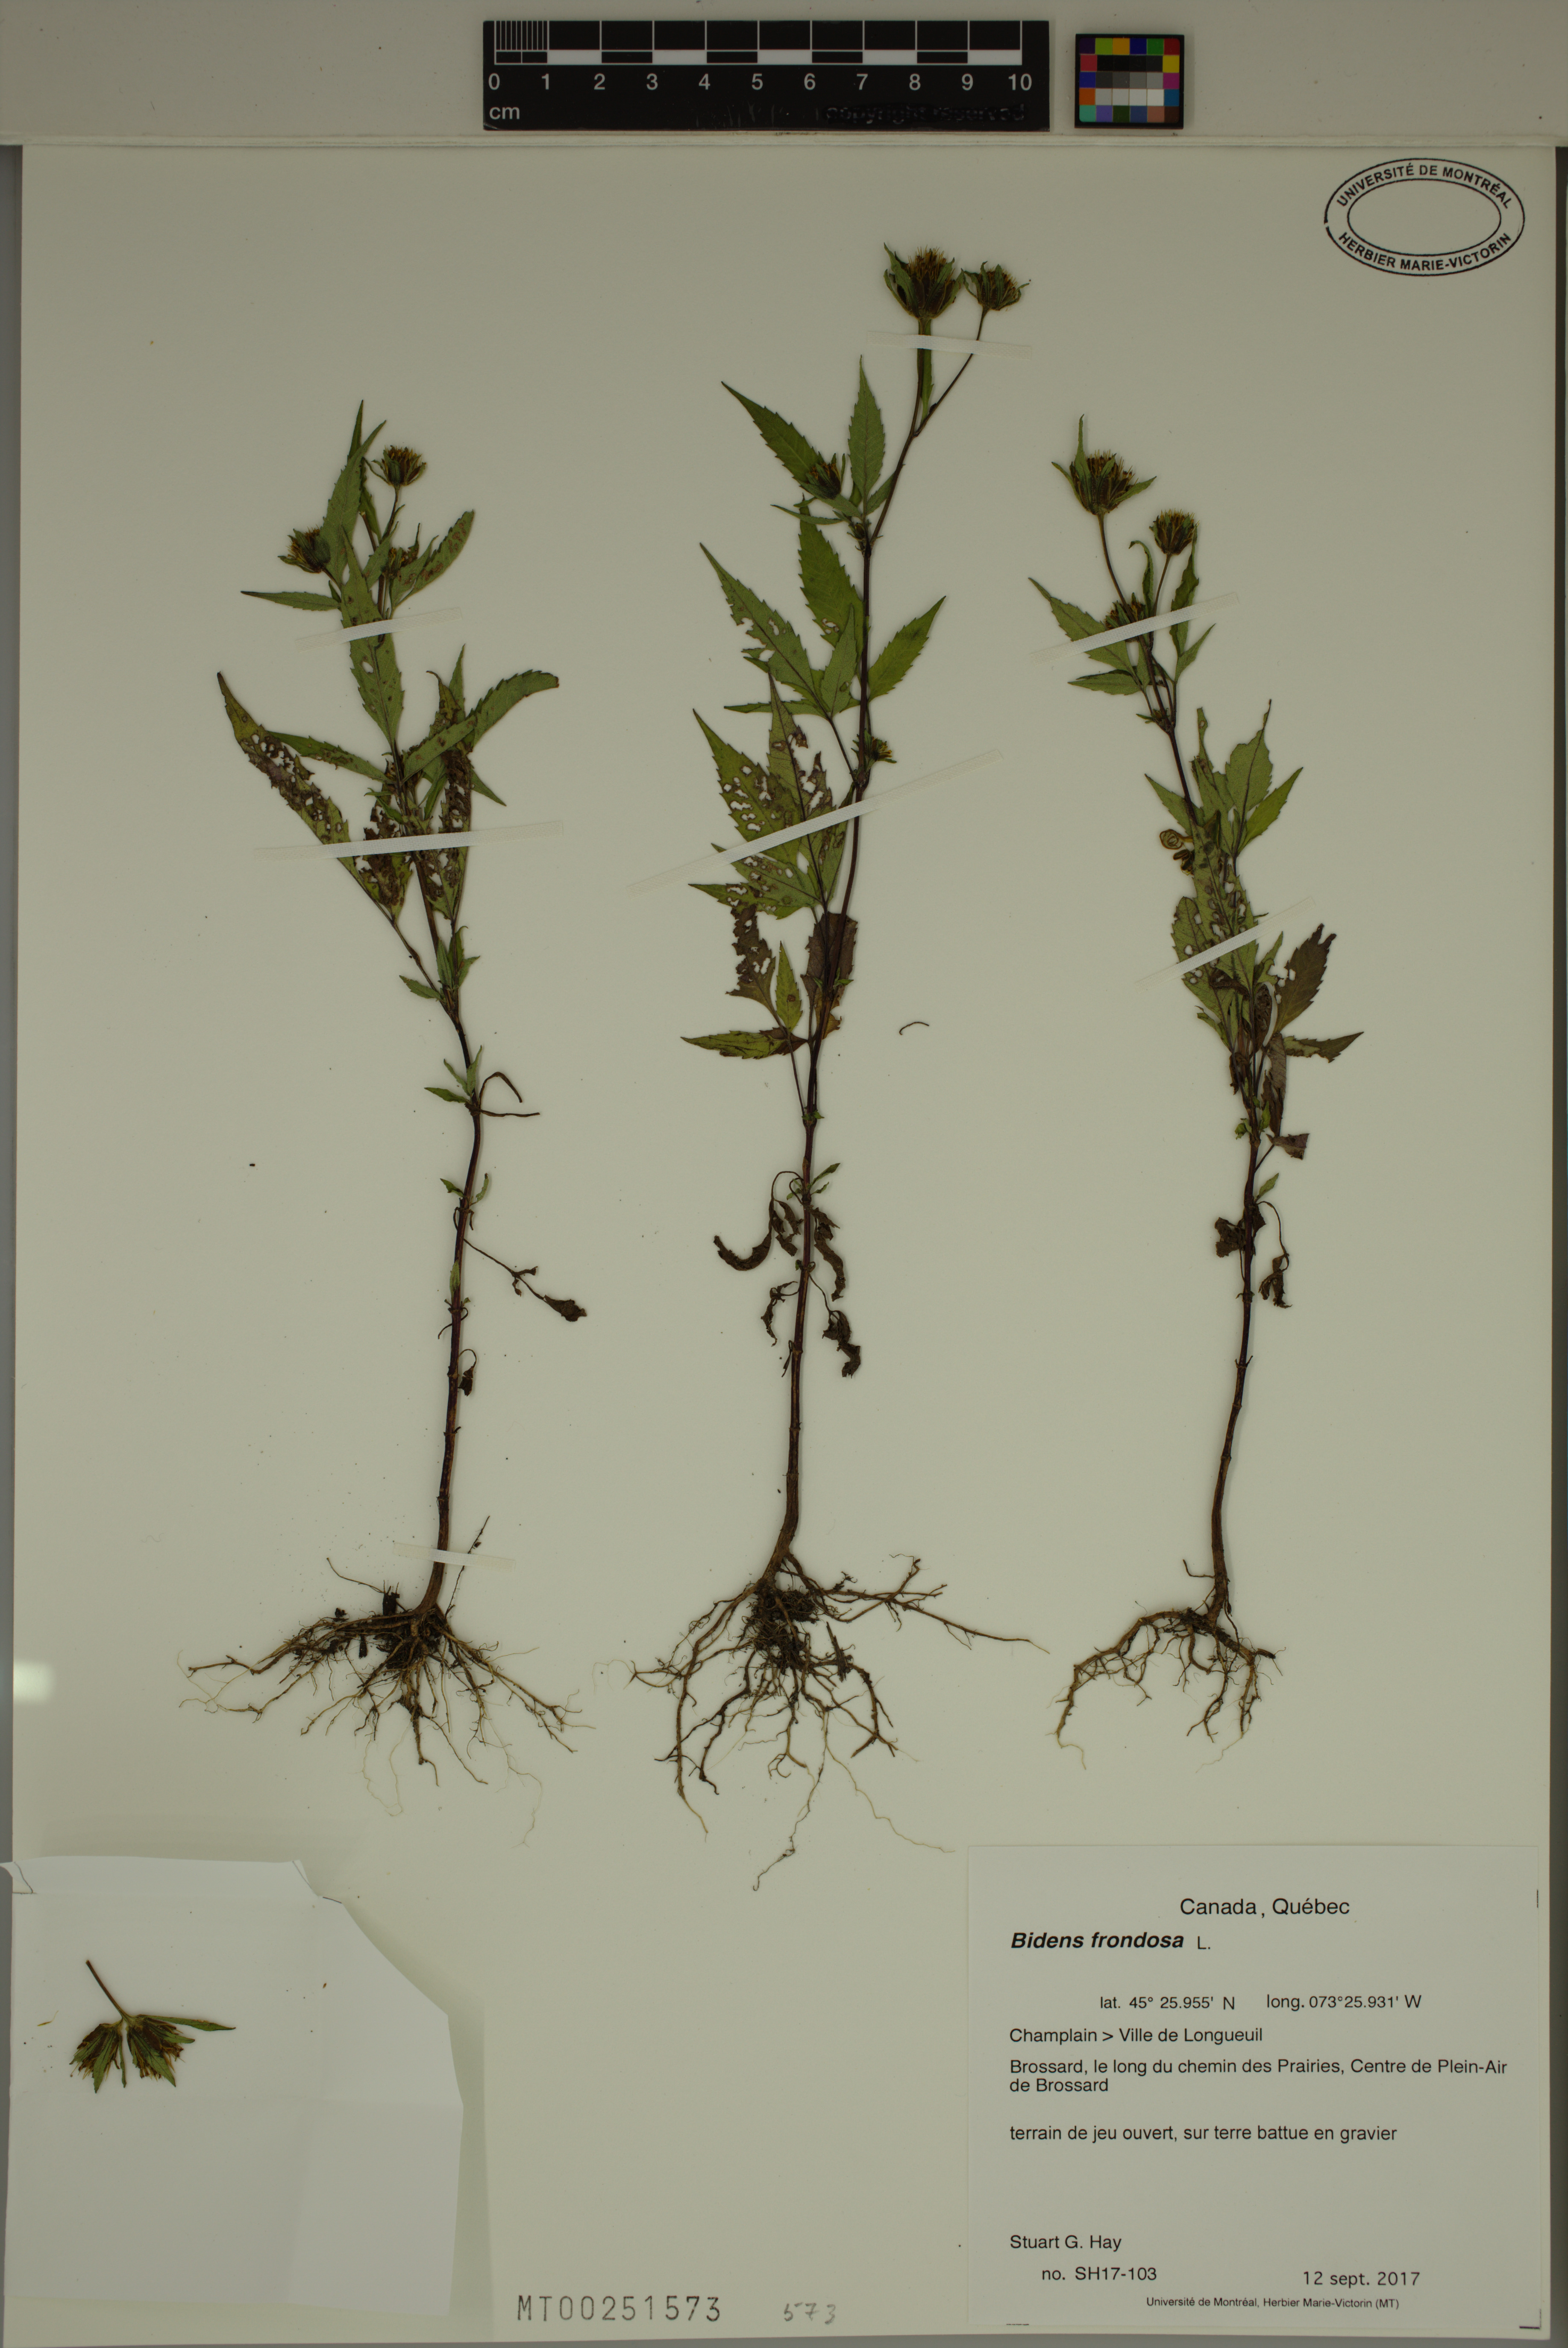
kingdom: Plantae
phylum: Tracheophyta
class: Magnoliopsida
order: Asterales
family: Asteraceae
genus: Bidens
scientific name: Bidens frondosa
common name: Beggarticks
